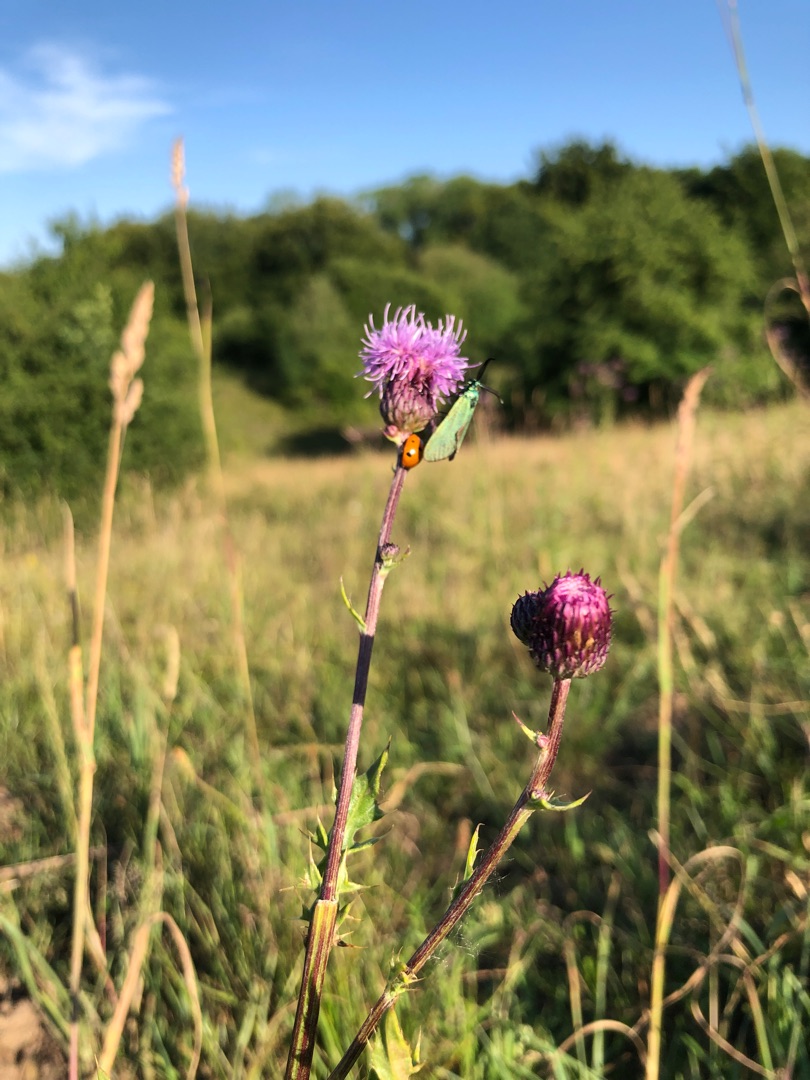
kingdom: Animalia
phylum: Arthropoda
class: Insecta
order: Lepidoptera
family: Zygaenidae
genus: Adscita
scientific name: Adscita statices
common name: Metalvinge
